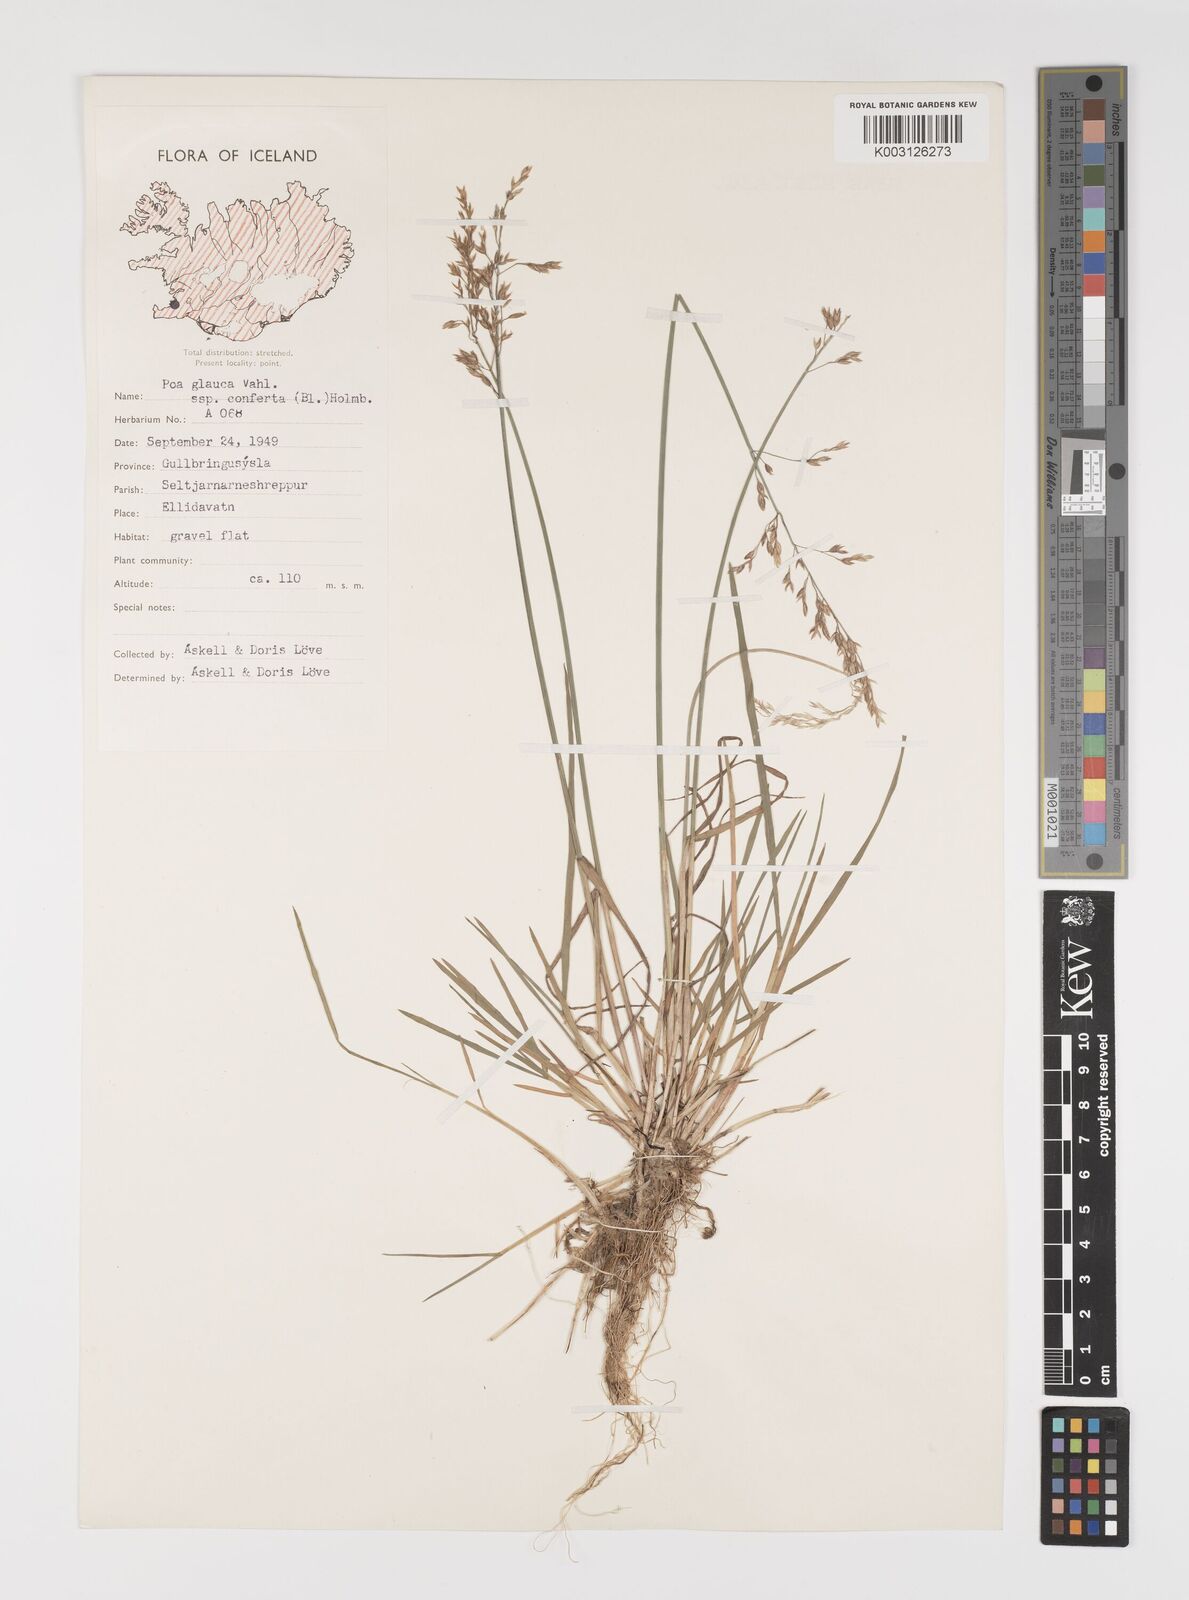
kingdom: Plantae
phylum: Tracheophyta
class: Liliopsida
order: Poales
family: Poaceae
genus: Poa
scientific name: Poa glauca
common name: Glaucous bluegrass
